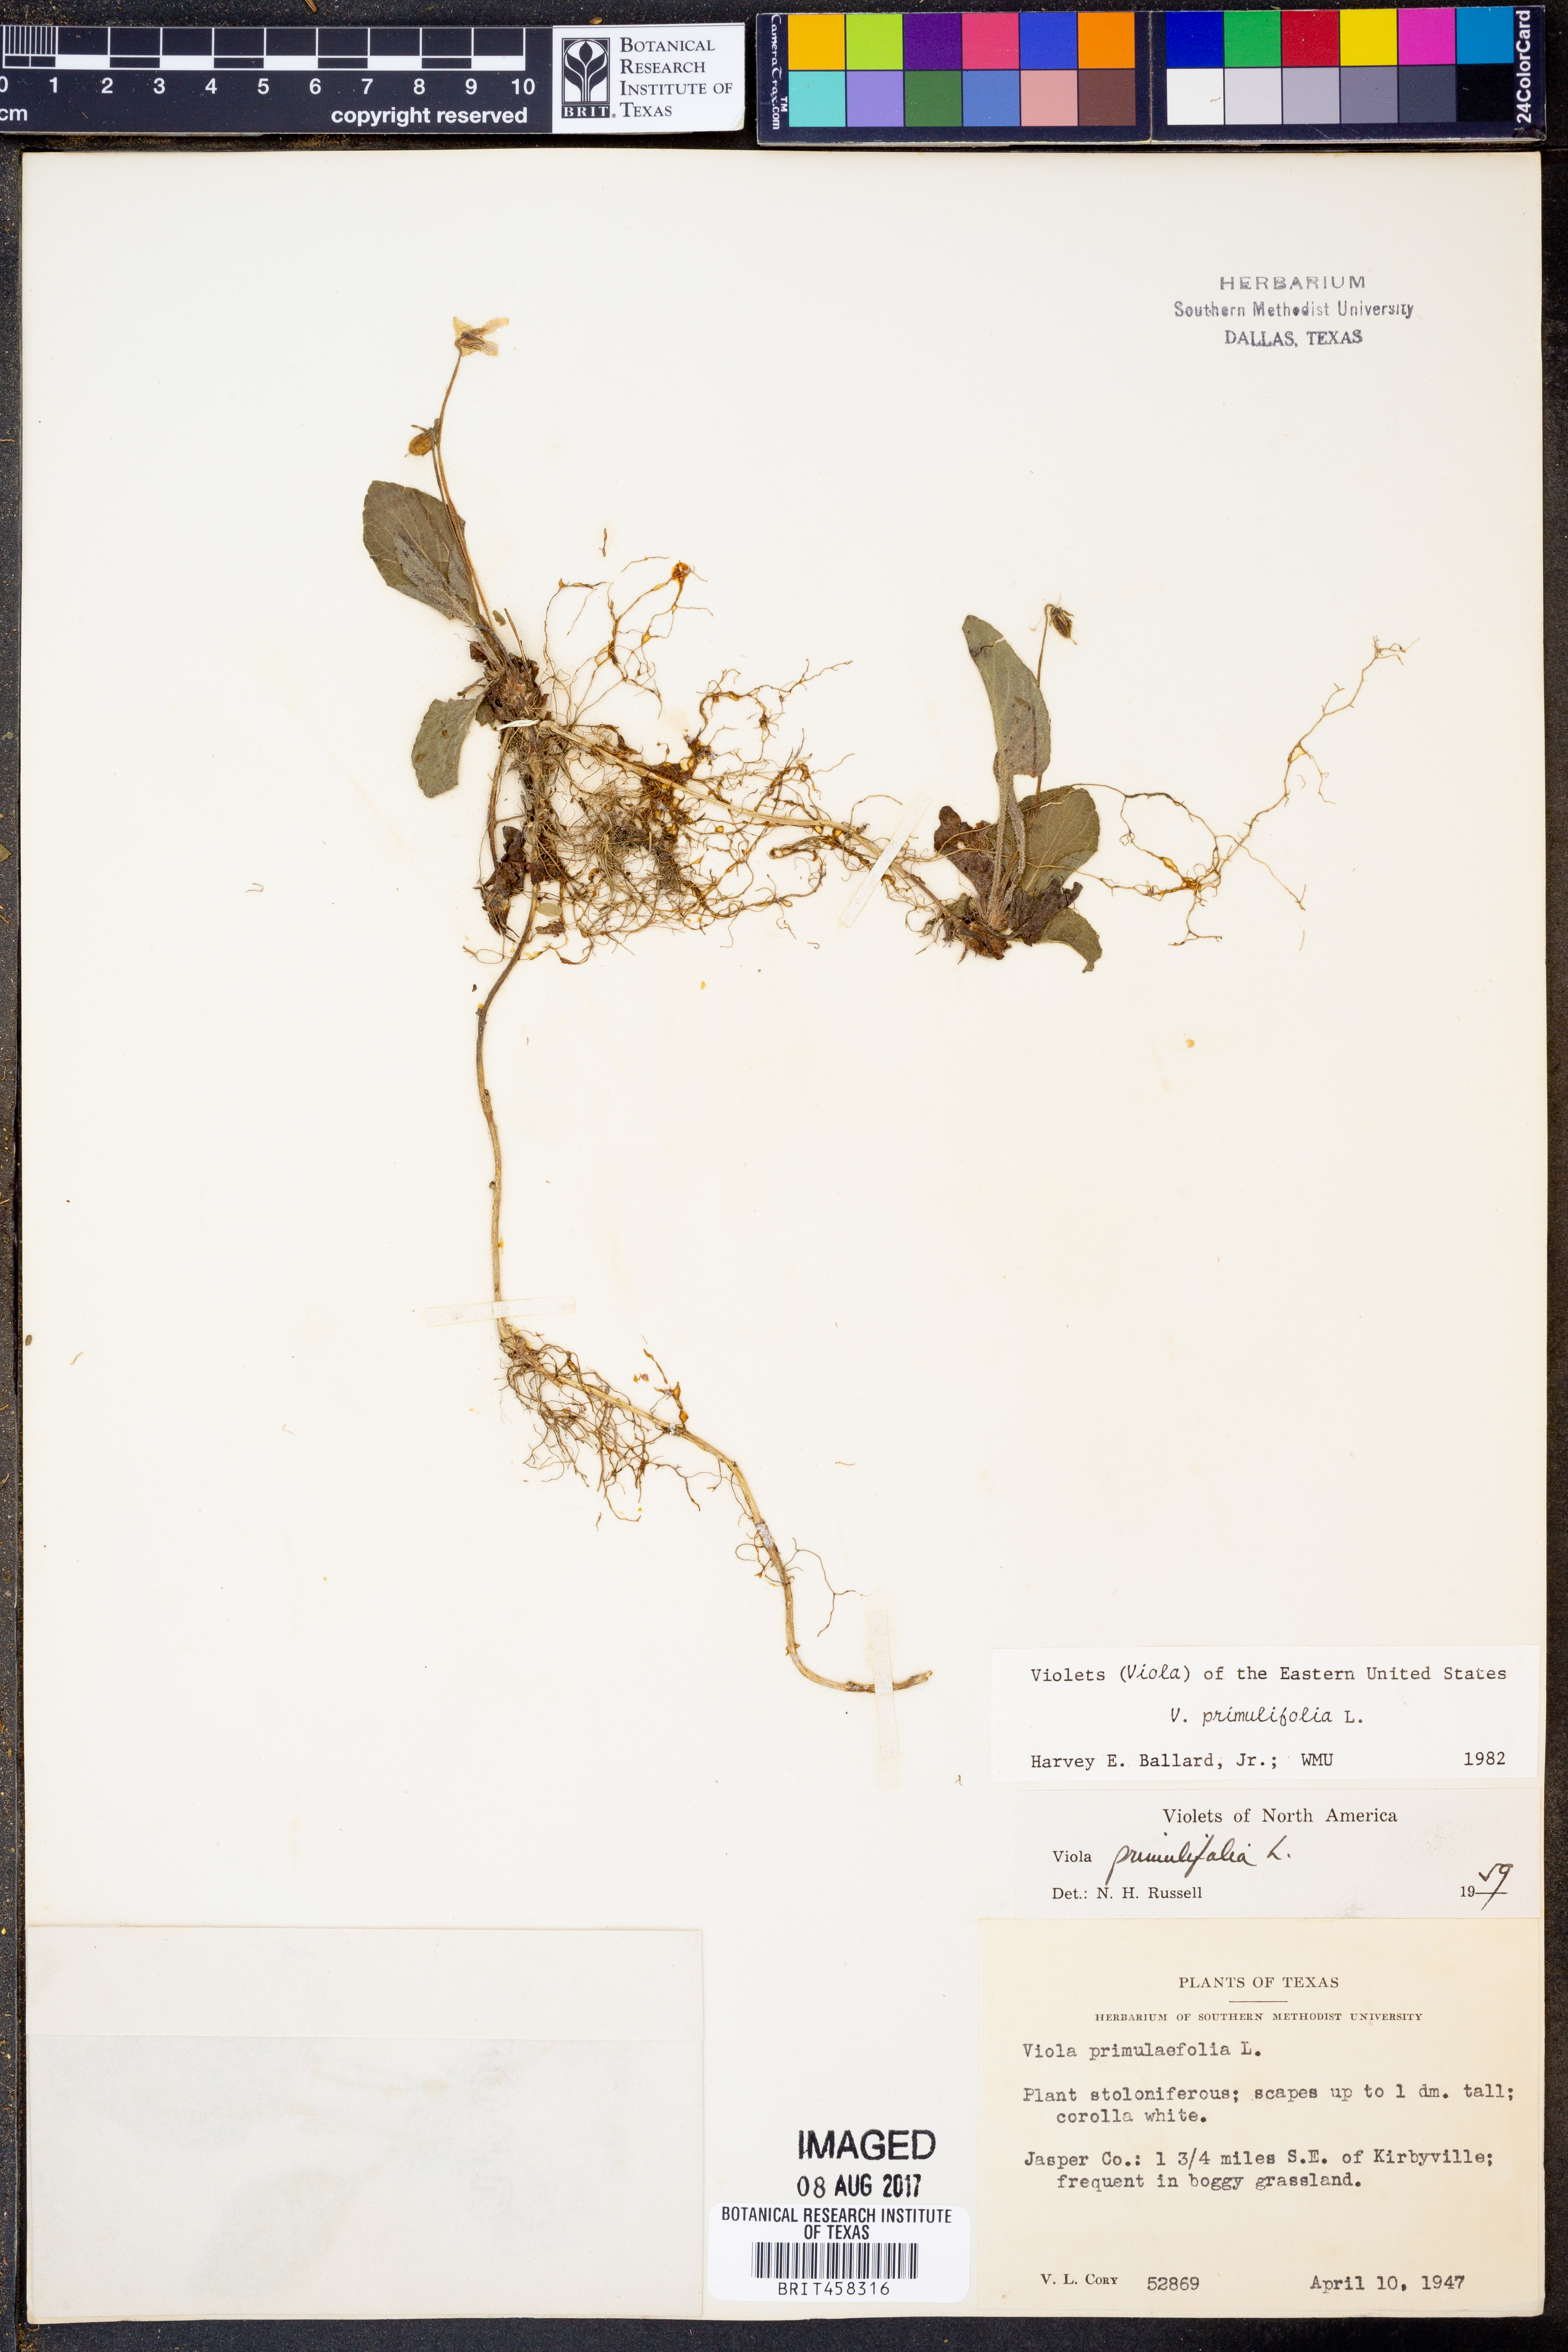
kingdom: Plantae
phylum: Tracheophyta
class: Magnoliopsida
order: Malpighiales
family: Violaceae
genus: Viola
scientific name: Viola primulifolia
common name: Primrose-leaf violet
